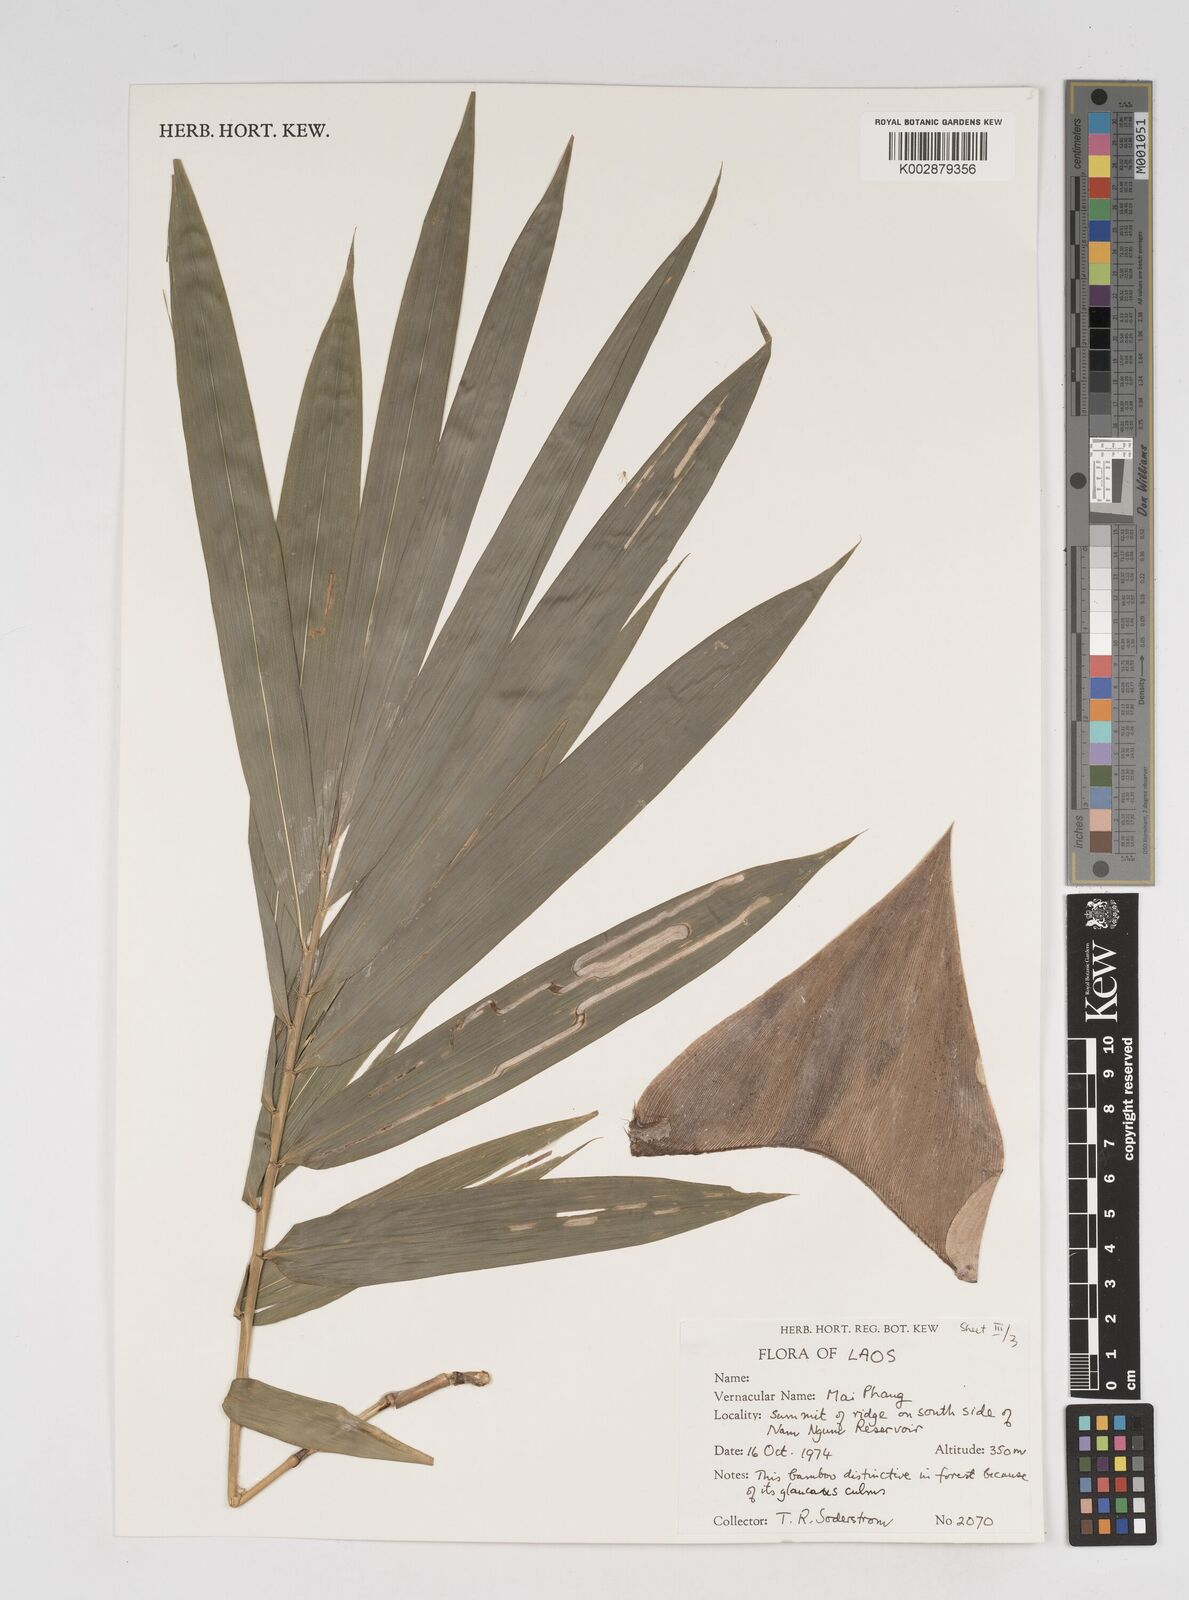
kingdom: Plantae
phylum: Tracheophyta
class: Liliopsida
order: Poales
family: Poaceae
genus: Dendrocalamus
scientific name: Dendrocalamus
